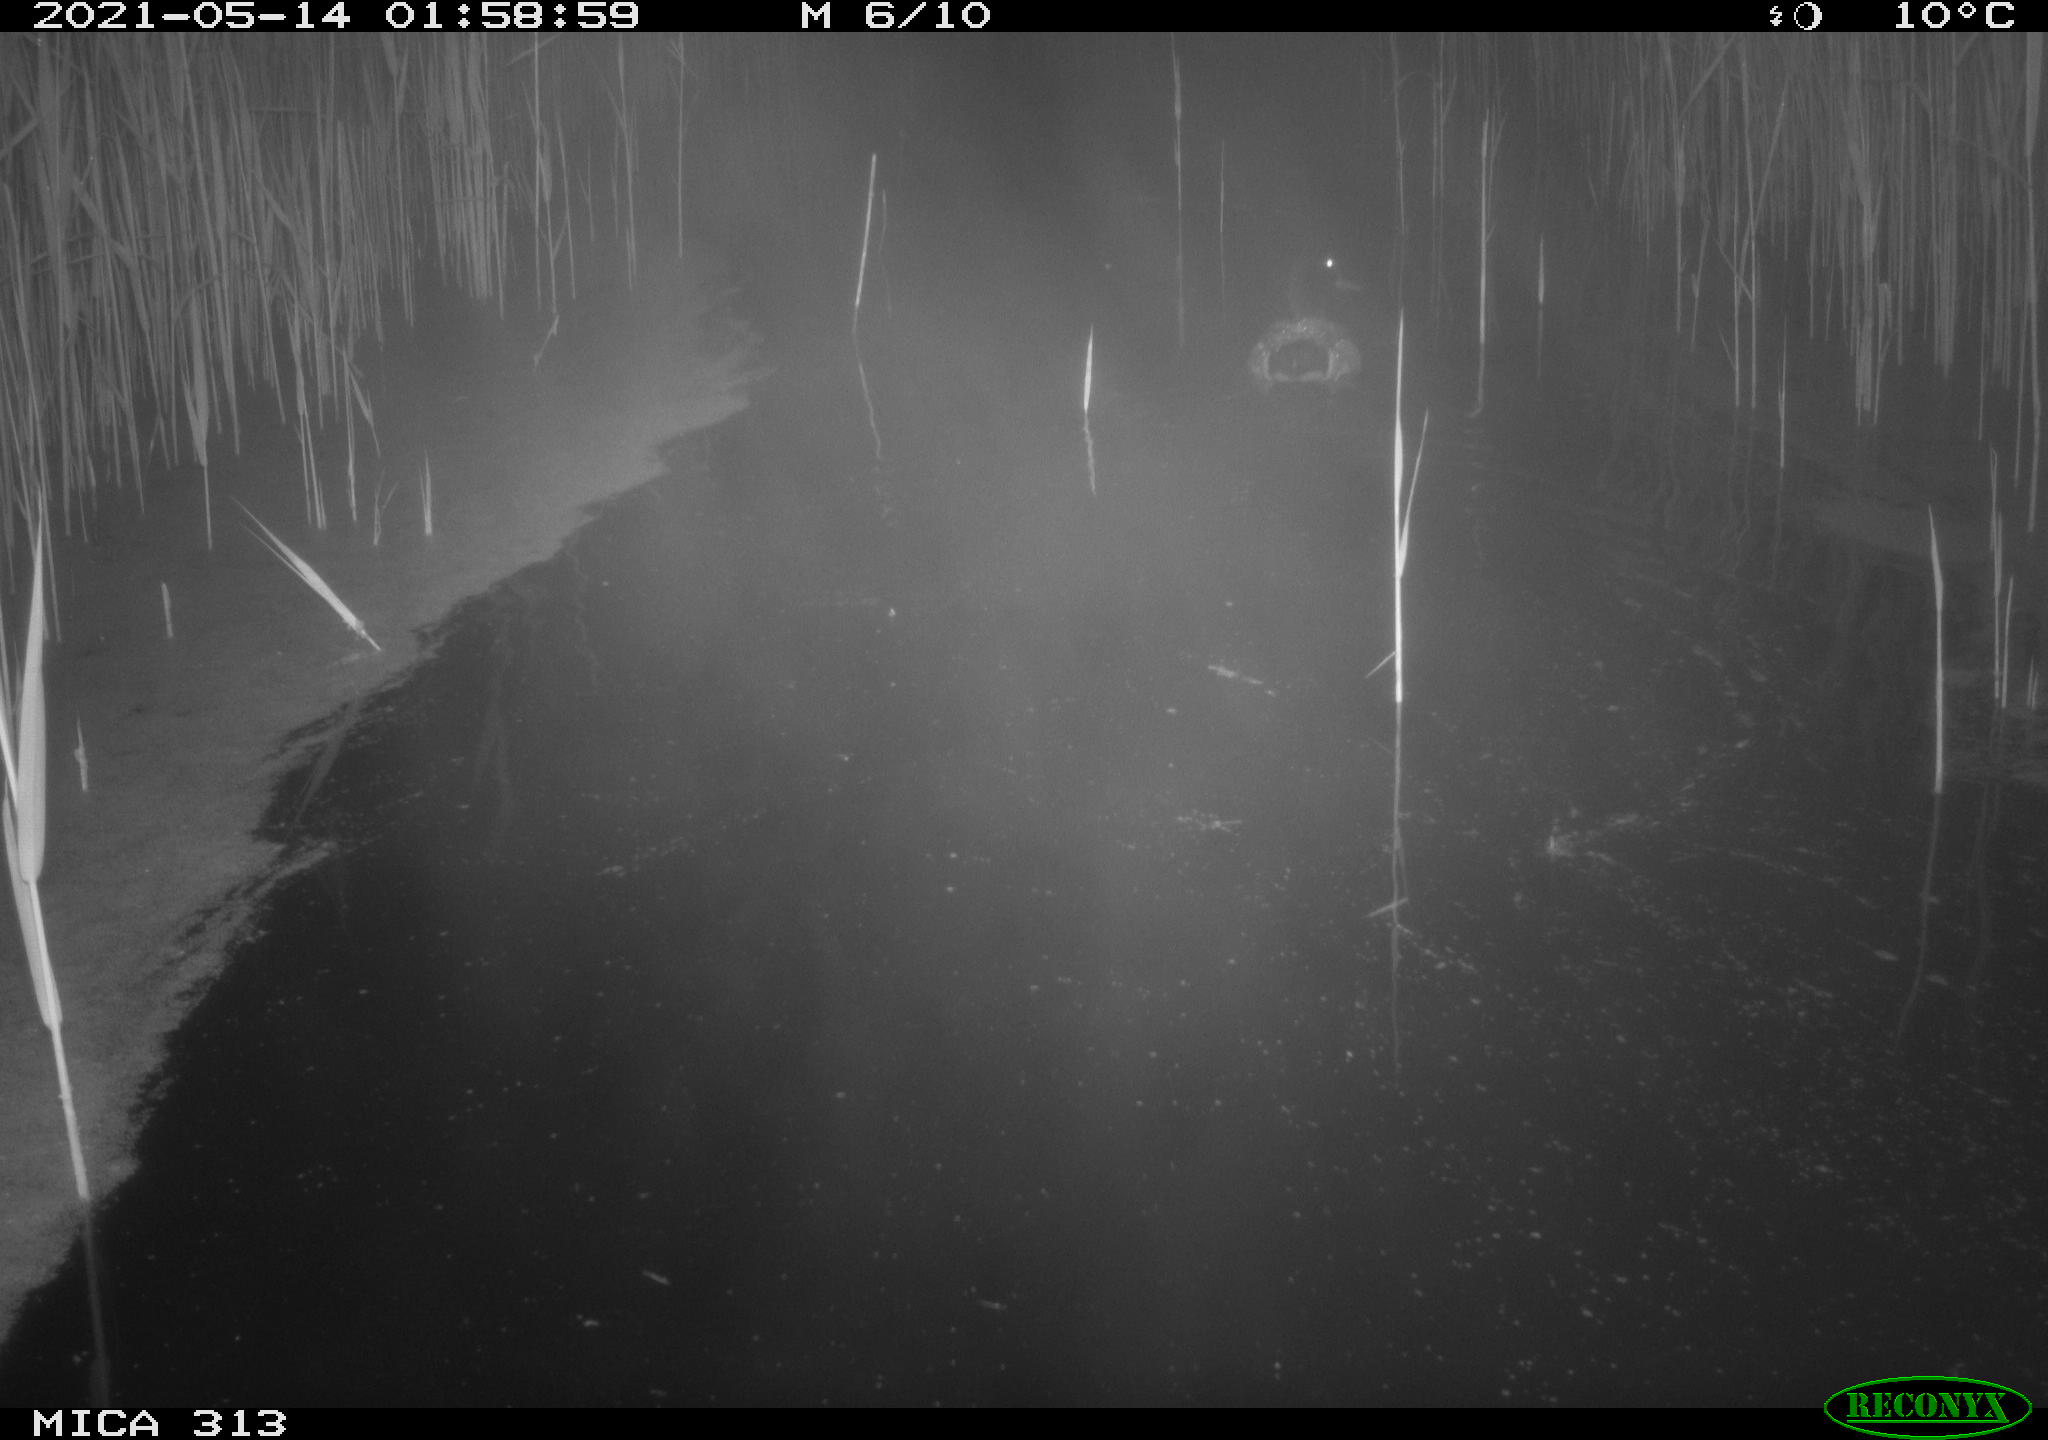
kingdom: Animalia
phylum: Chordata
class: Aves
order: Anseriformes
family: Anatidae
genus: Anas
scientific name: Anas platyrhynchos
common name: Mallard
